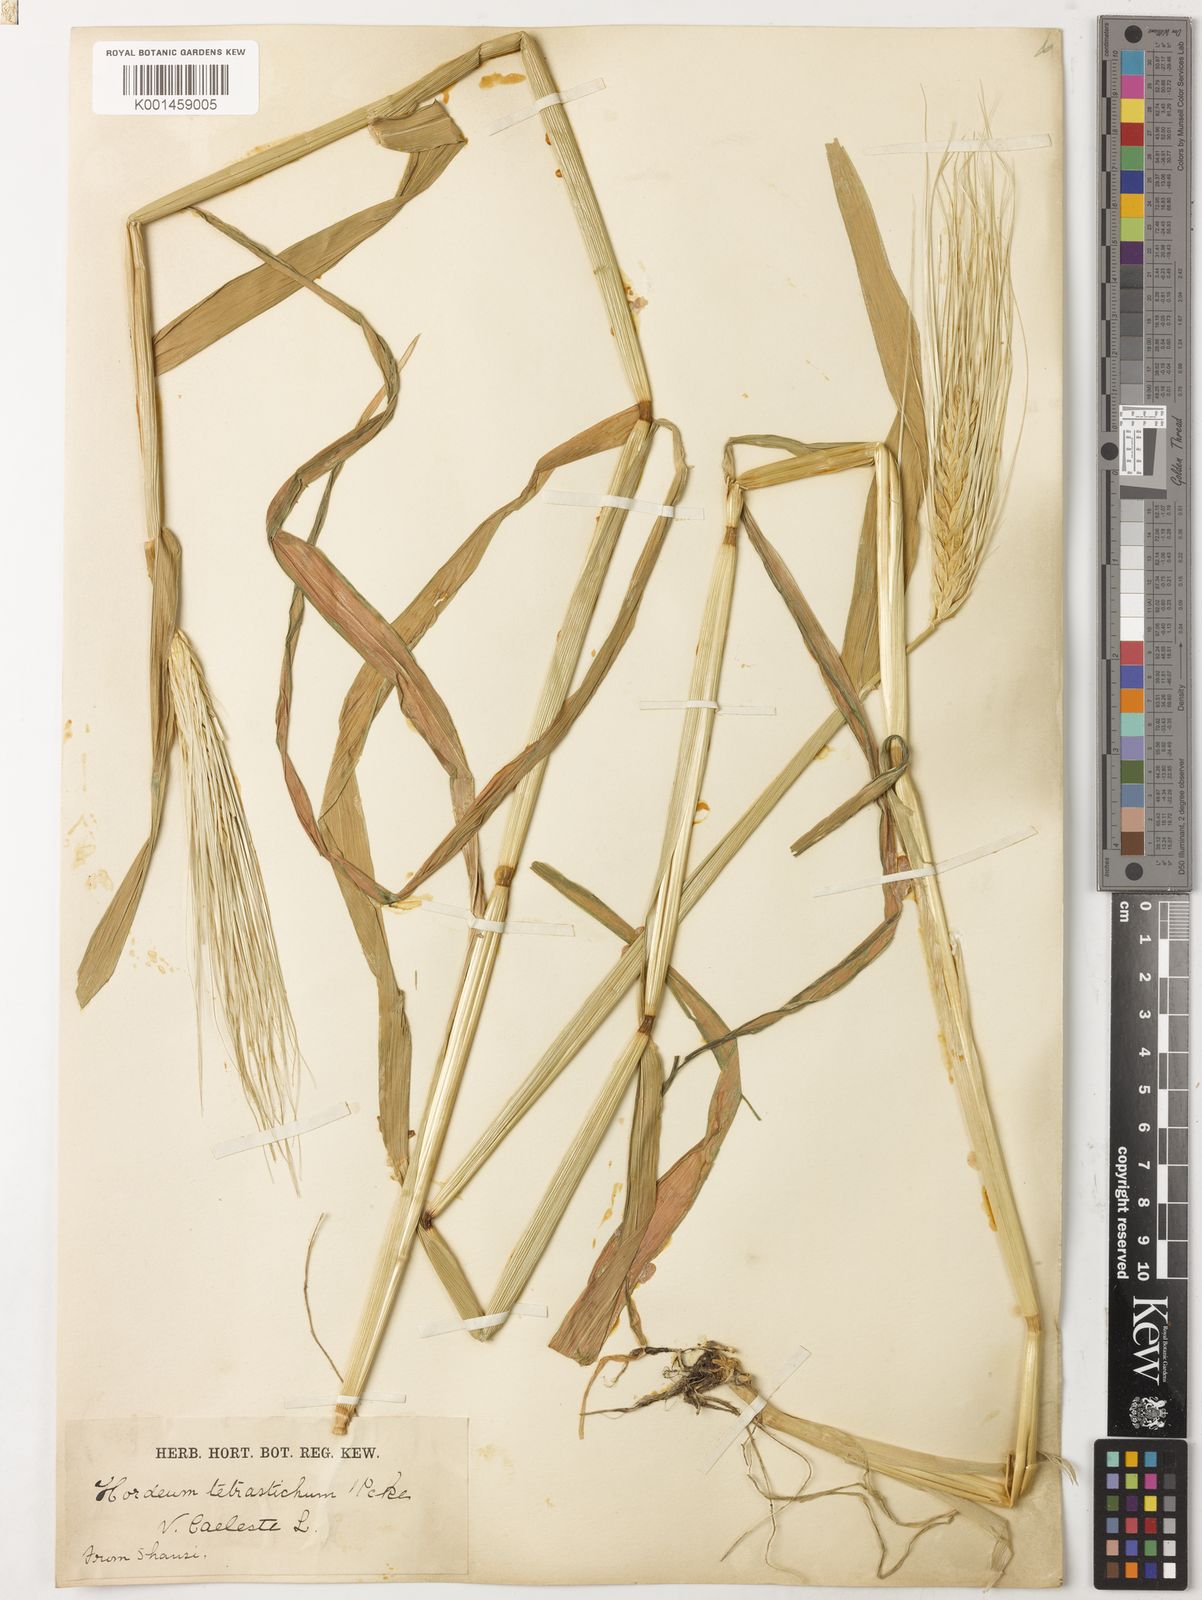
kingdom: Plantae
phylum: Tracheophyta
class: Liliopsida
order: Poales
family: Poaceae
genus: Hordeum
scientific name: Hordeum vulgare
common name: Common barley
